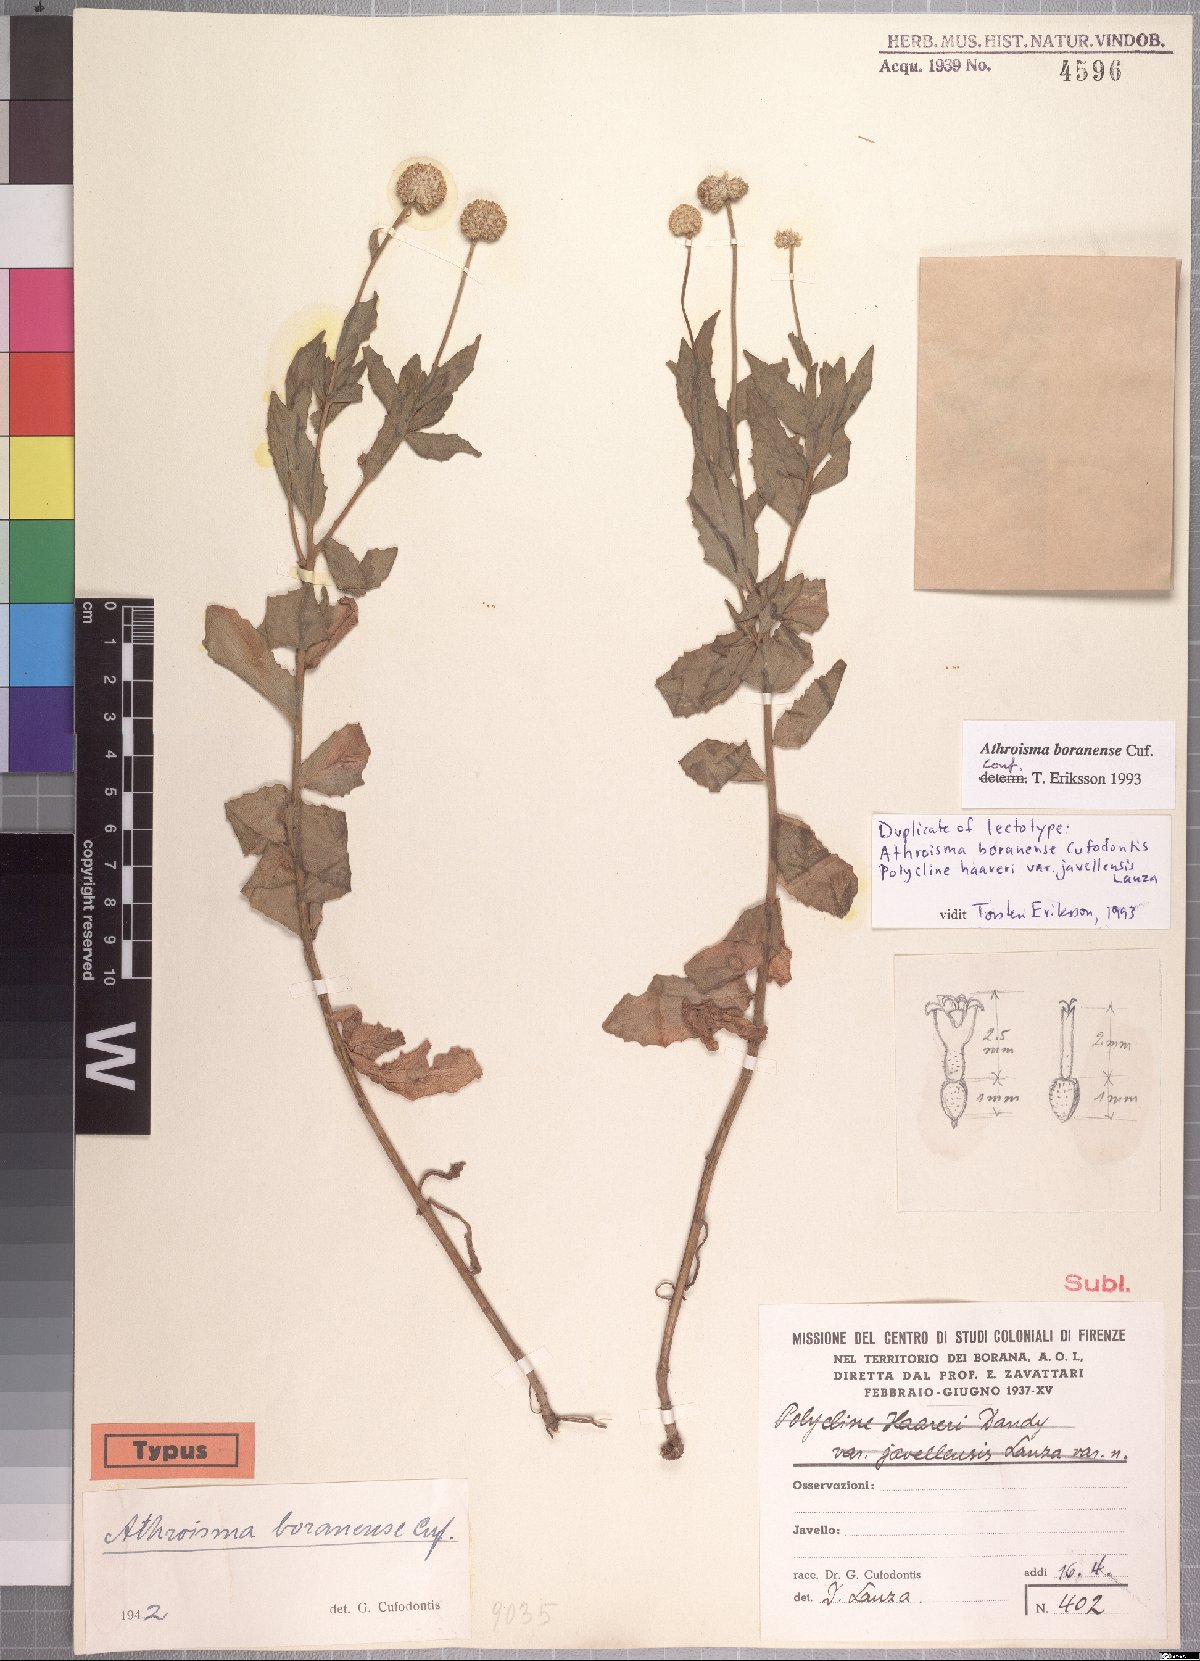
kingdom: Plantae
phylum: Tracheophyta
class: Magnoliopsida
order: Asterales
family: Asteraceae
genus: Athroisma
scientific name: Athroisma boranense
